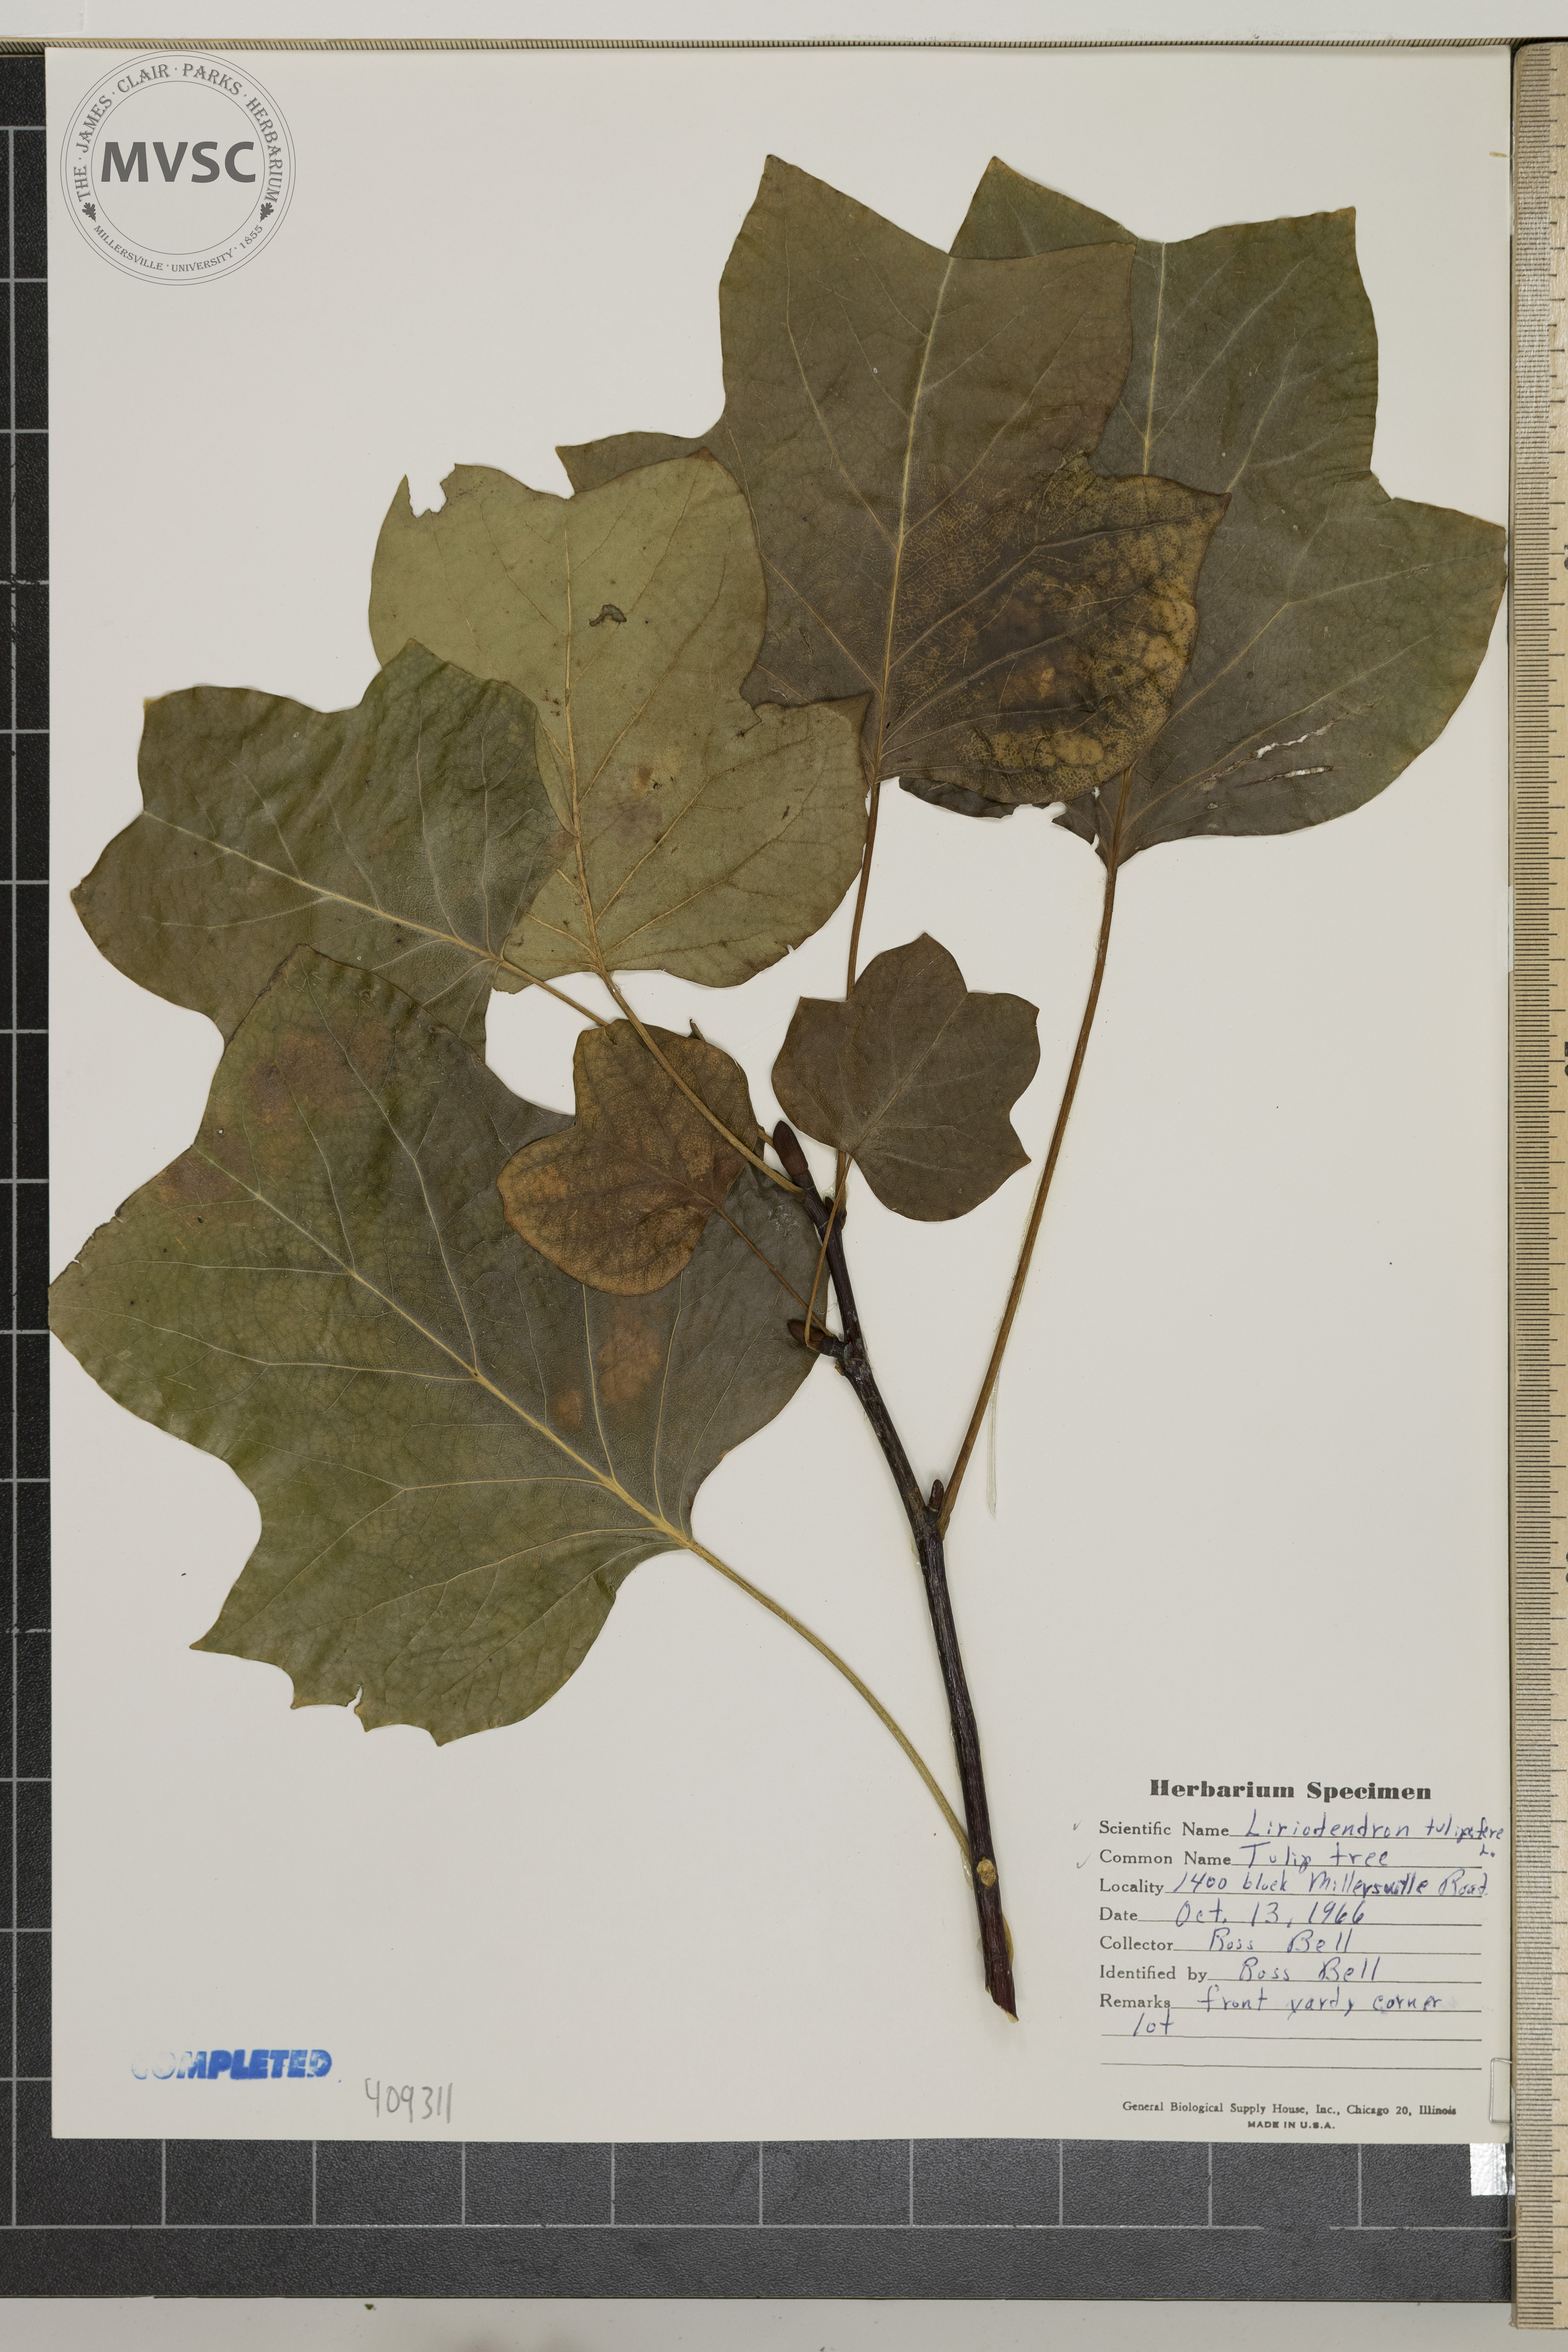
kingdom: Plantae
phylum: Tracheophyta
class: Magnoliopsida
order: Magnoliales
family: Magnoliaceae
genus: Liriodendron
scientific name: Liriodendron tulipifera
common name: Tulip tree
